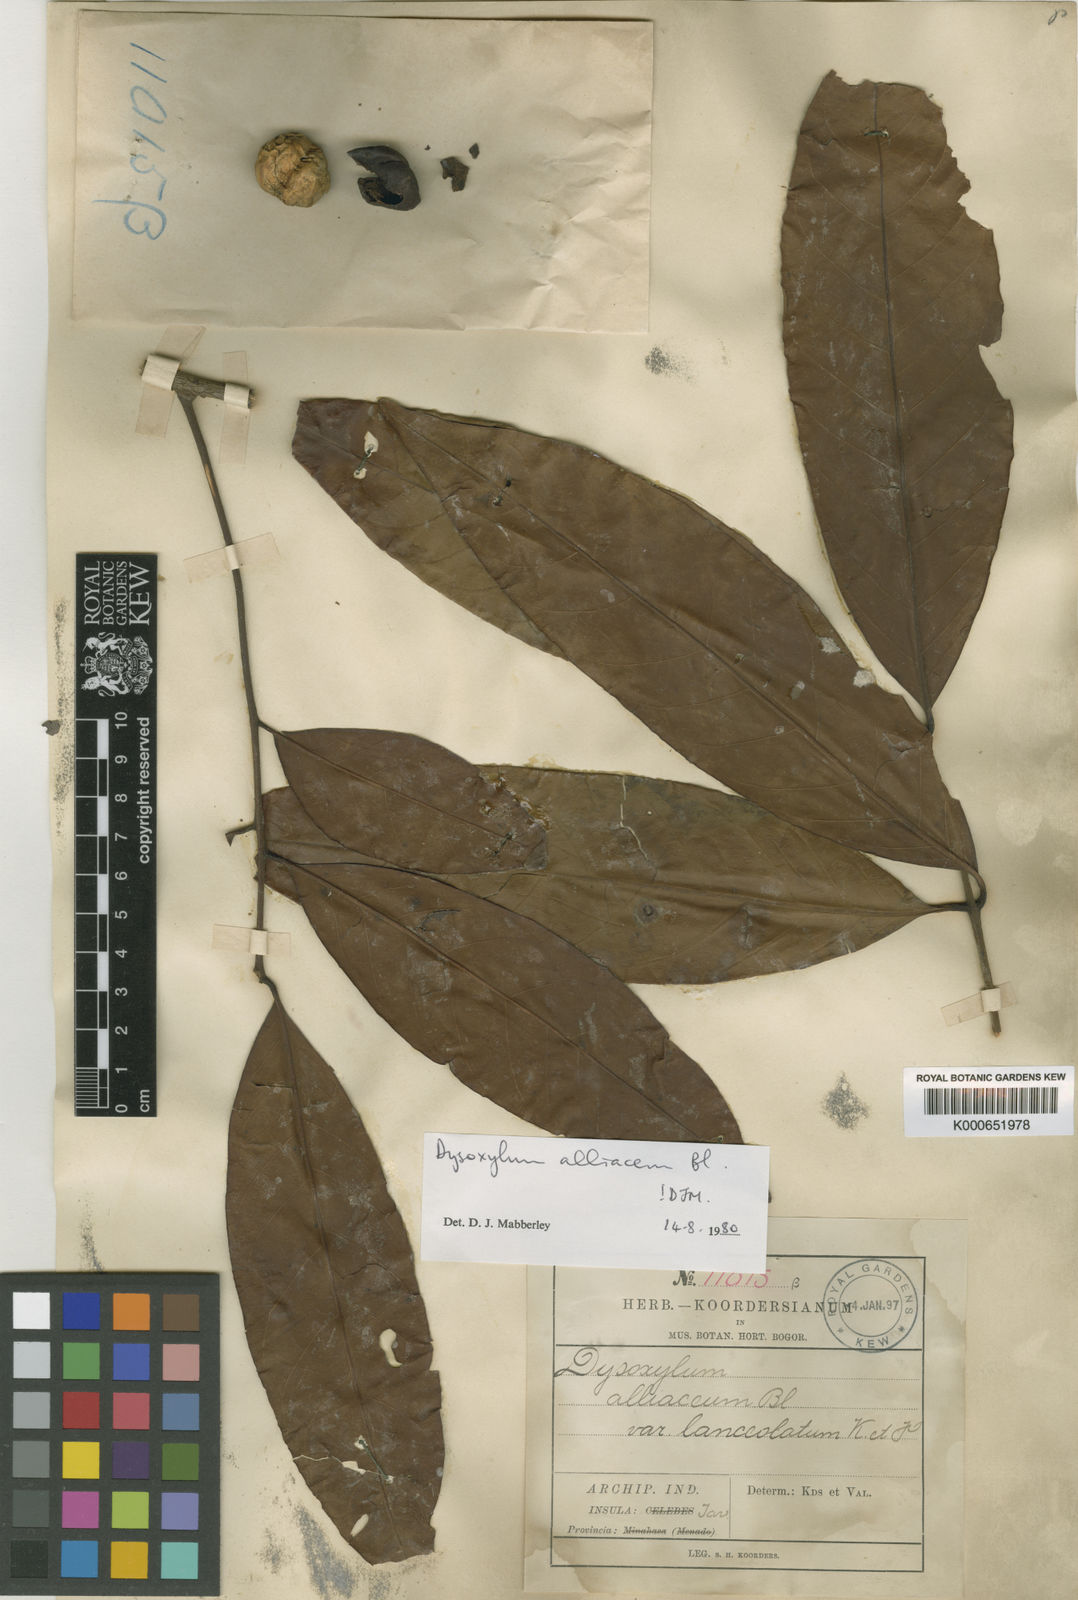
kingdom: Plantae
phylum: Tracheophyta
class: Magnoliopsida
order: Sapindales
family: Meliaceae
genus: Prasoxylon
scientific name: Prasoxylon alliaceum
